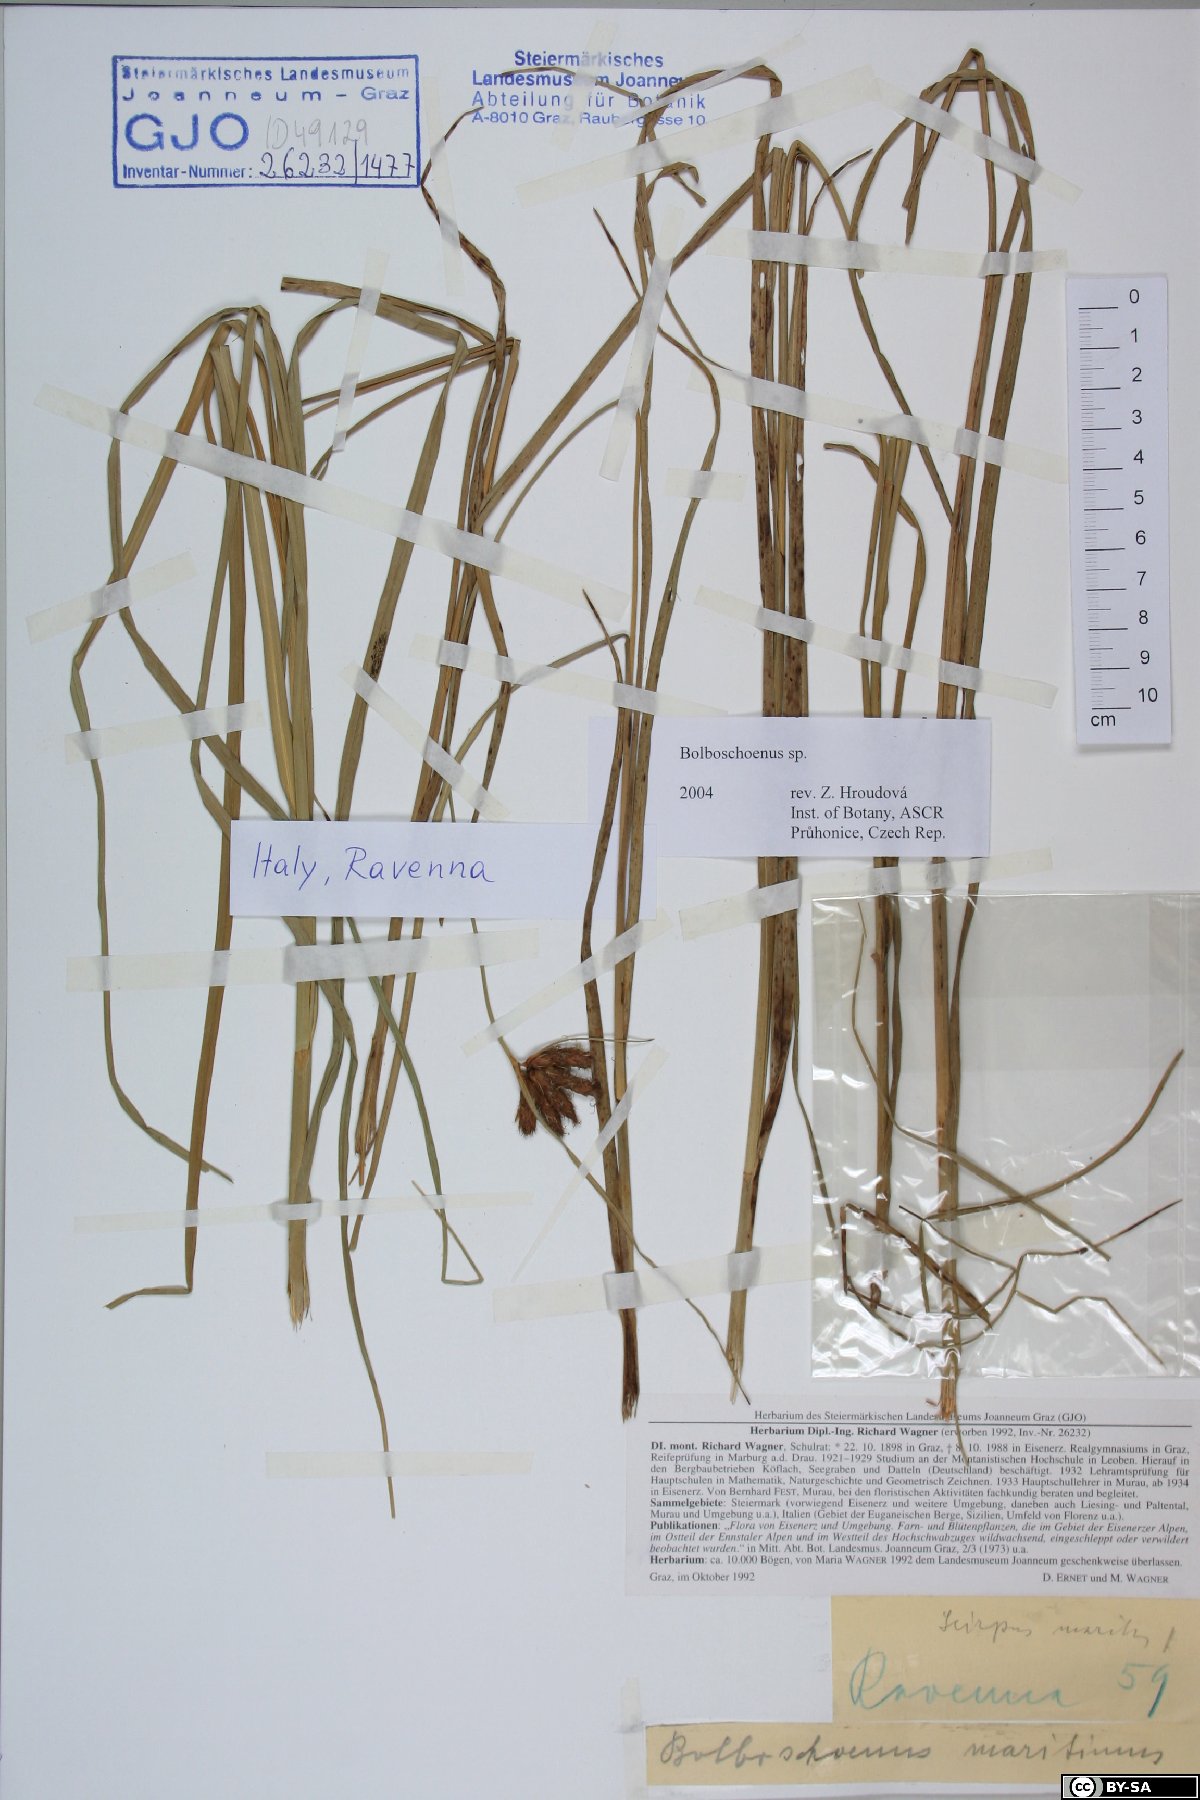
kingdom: Plantae
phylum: Tracheophyta
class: Liliopsida
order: Poales
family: Cyperaceae
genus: Bolboschoenus
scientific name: Bolboschoenus
